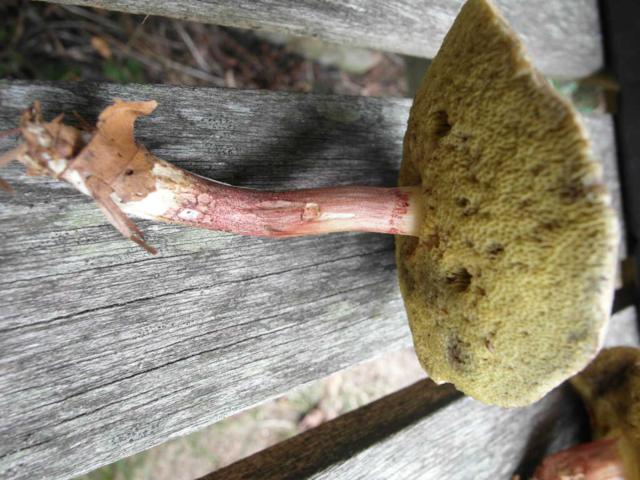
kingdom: Fungi
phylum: Basidiomycota
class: Agaricomycetes
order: Boletales
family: Boletaceae
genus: Xerocomellus
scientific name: Xerocomellus chrysenteron
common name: rødsprukken rørhat
